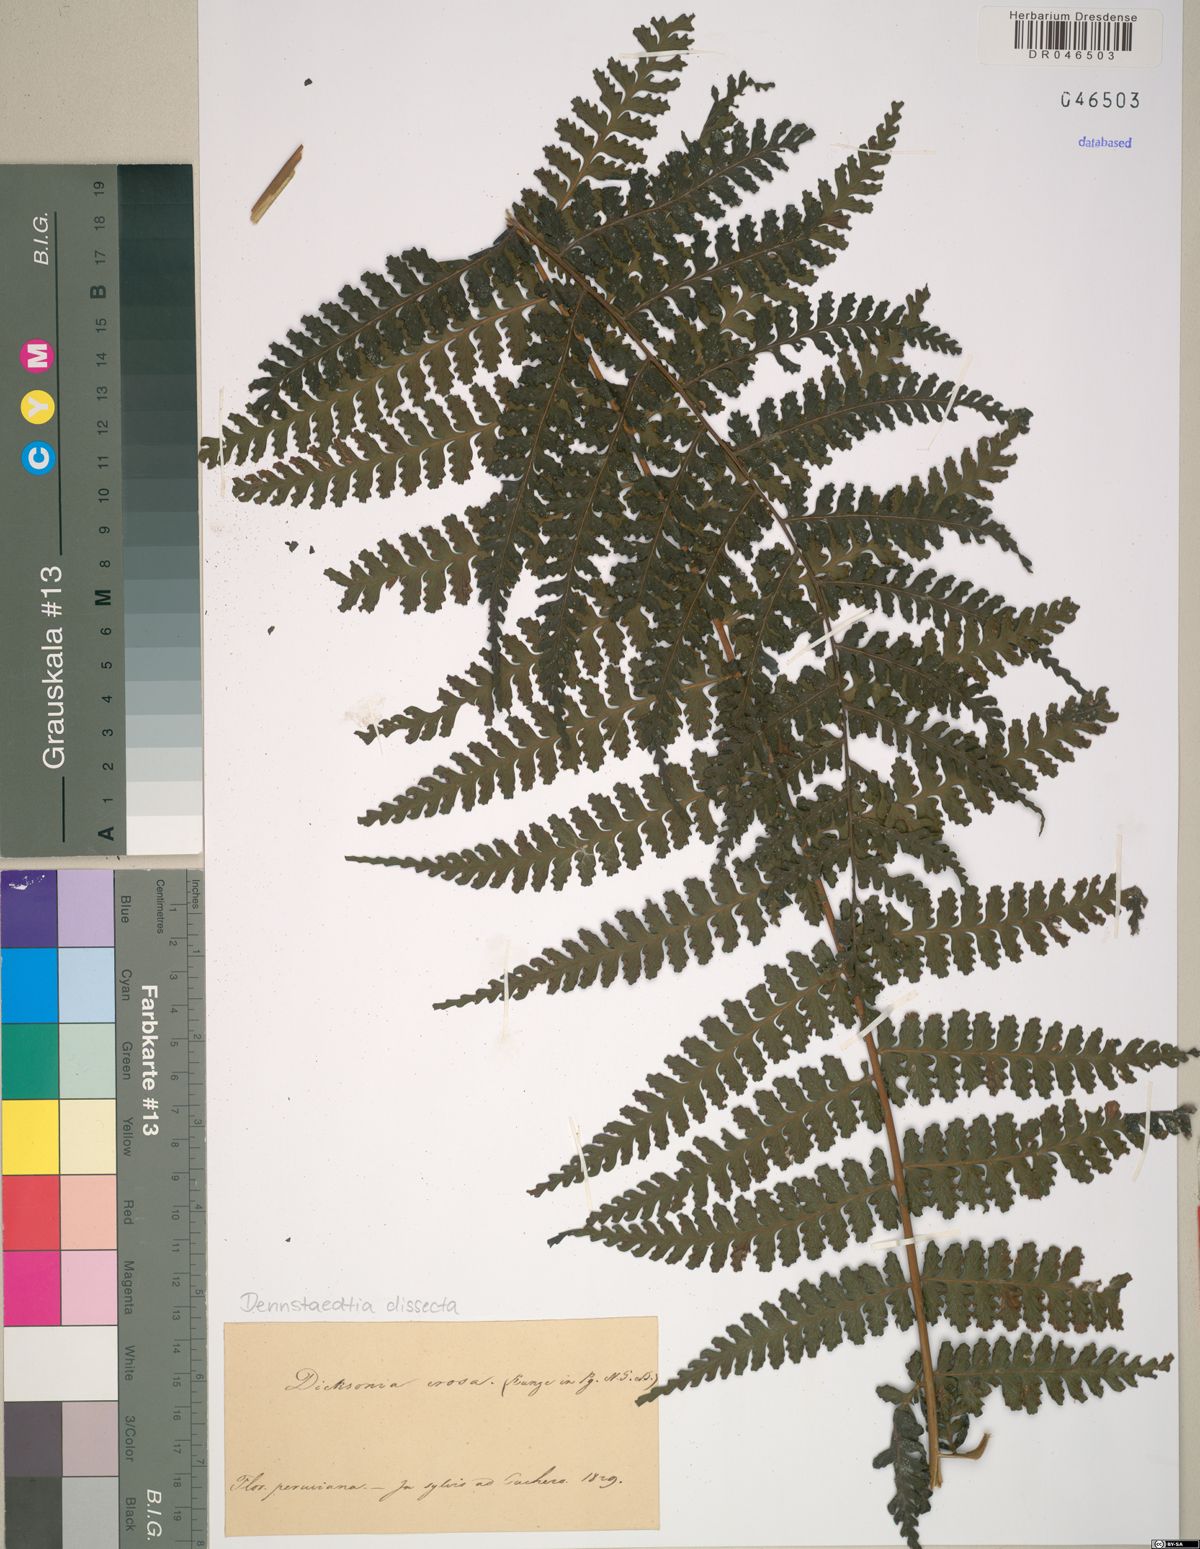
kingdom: Plantae
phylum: Tracheophyta
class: Polypodiopsida
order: Polypodiales
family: Dennstaedtiaceae
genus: Dennstaedtia
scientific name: Dennstaedtia dissecta
